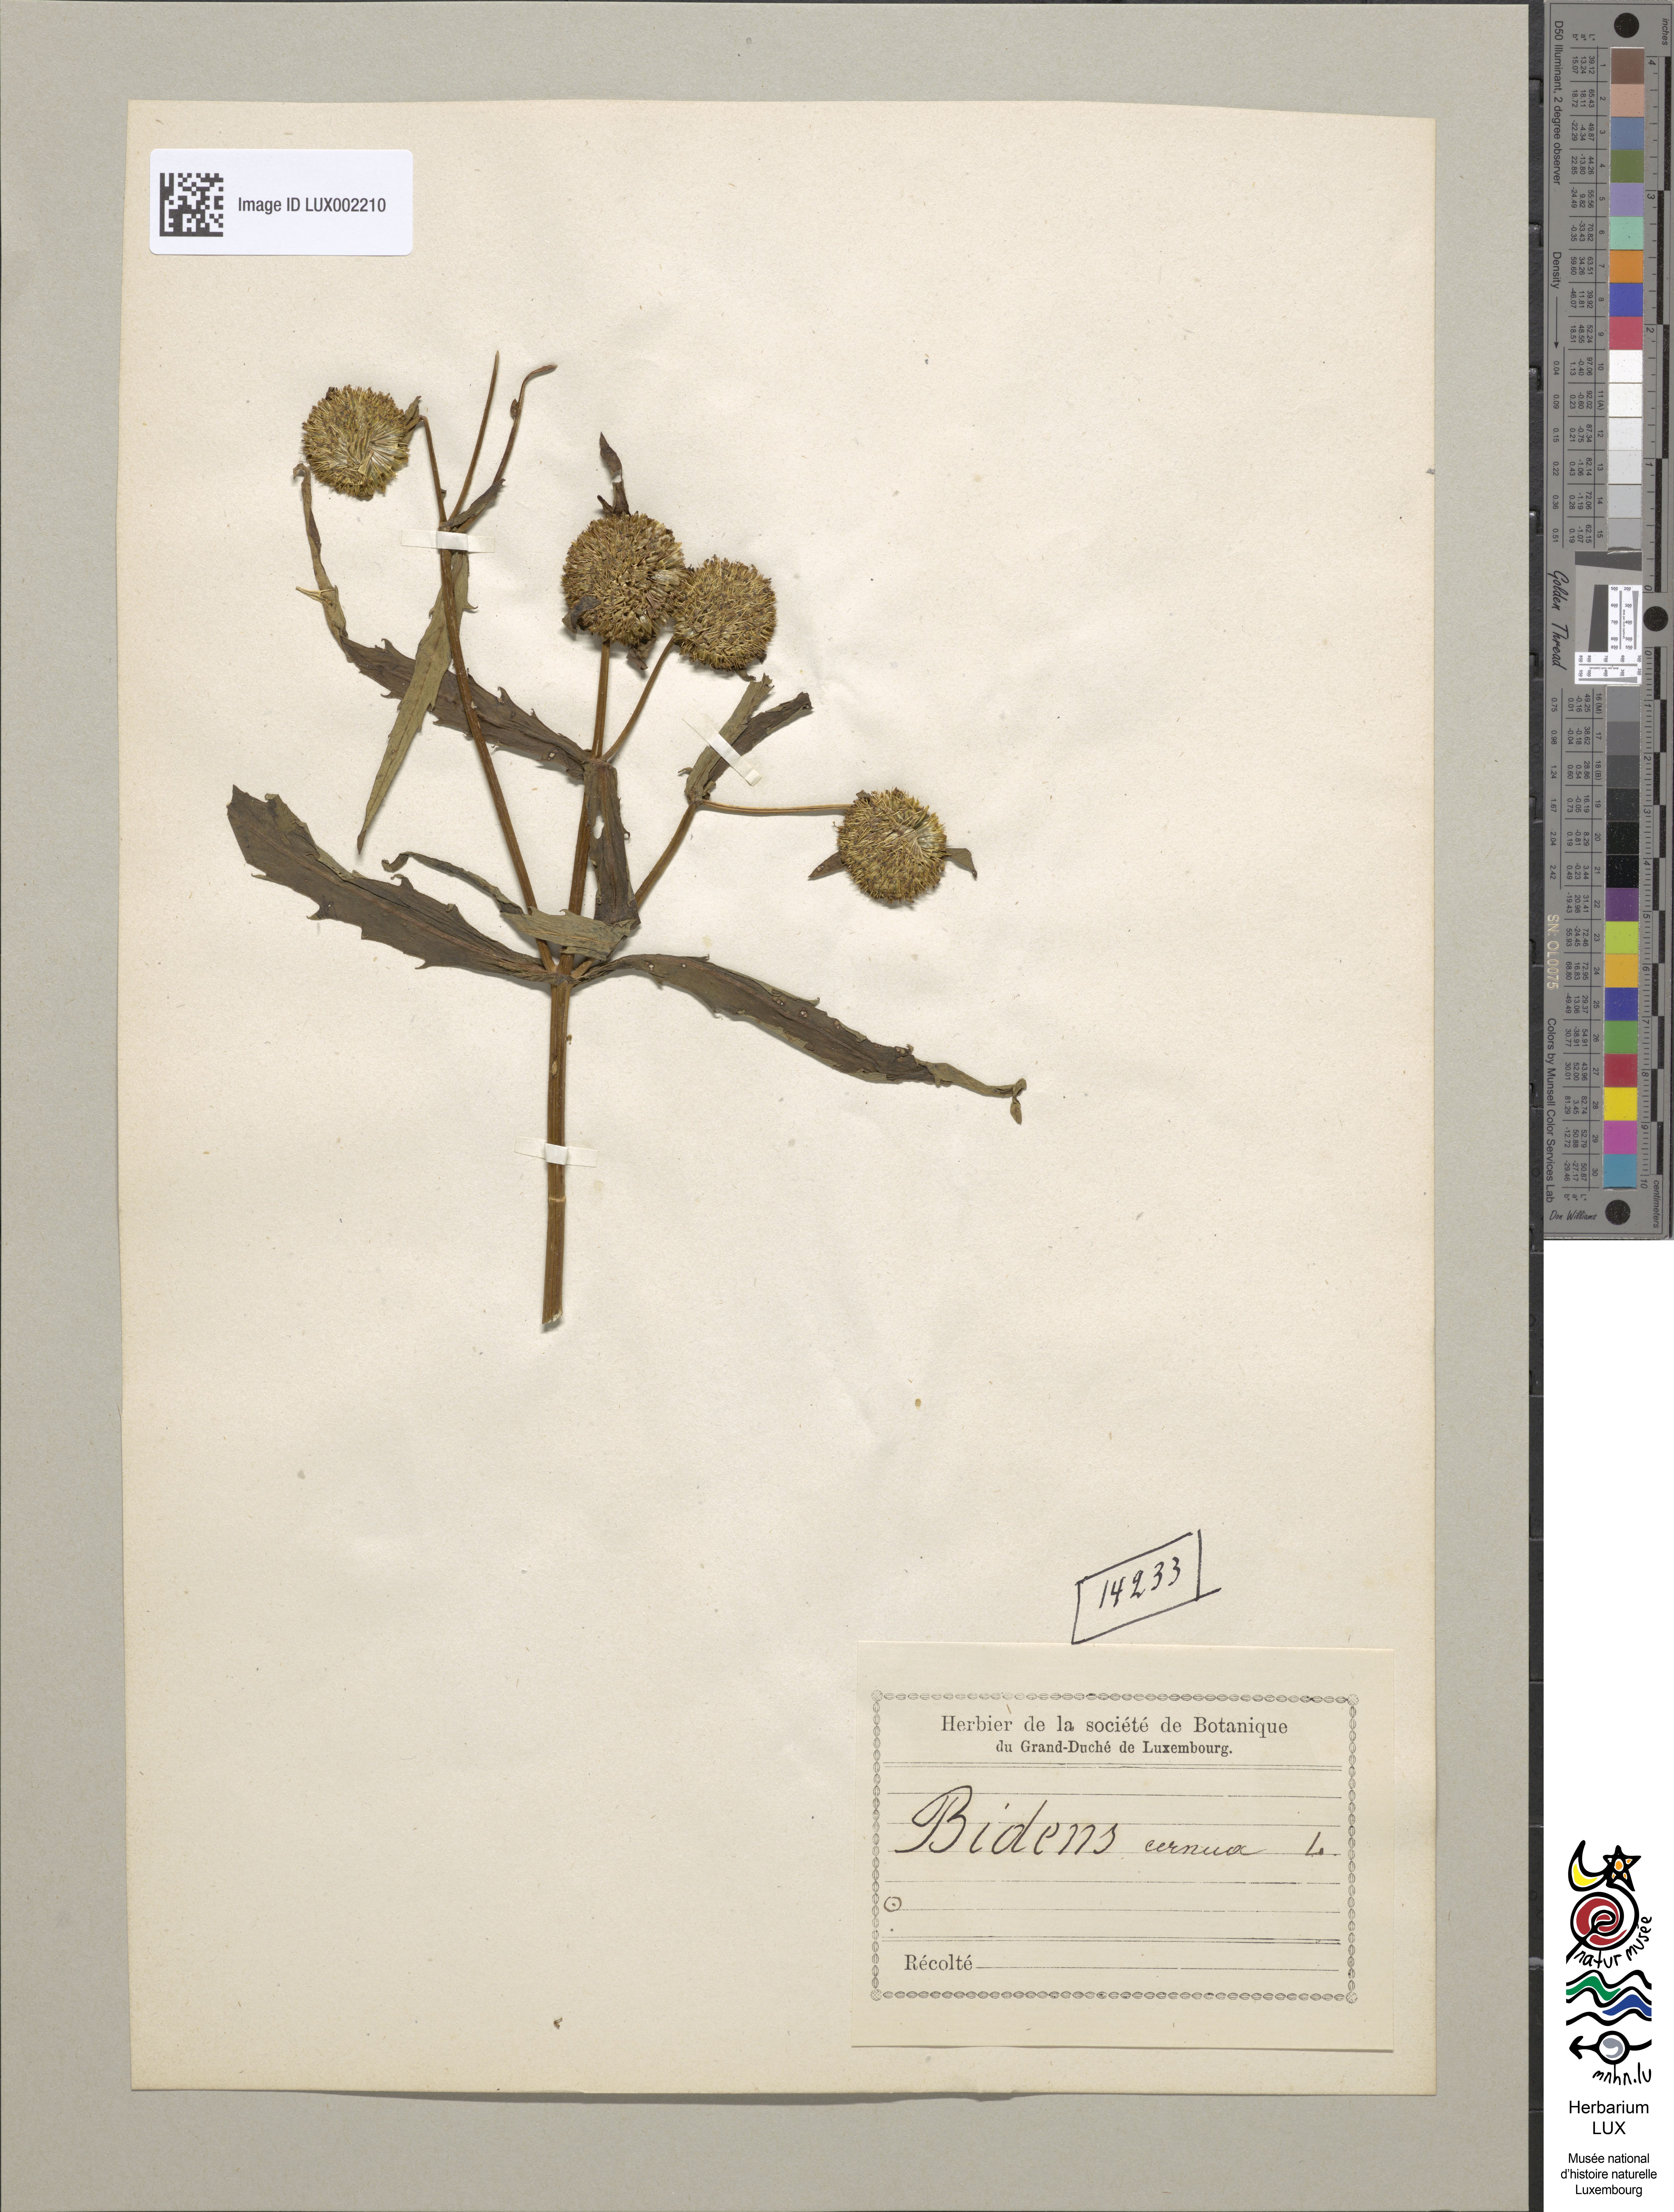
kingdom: Plantae
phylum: Tracheophyta
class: Magnoliopsida
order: Asterales
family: Asteraceae
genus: Bidens
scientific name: Bidens cernua
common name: Nodding bur-marigold
